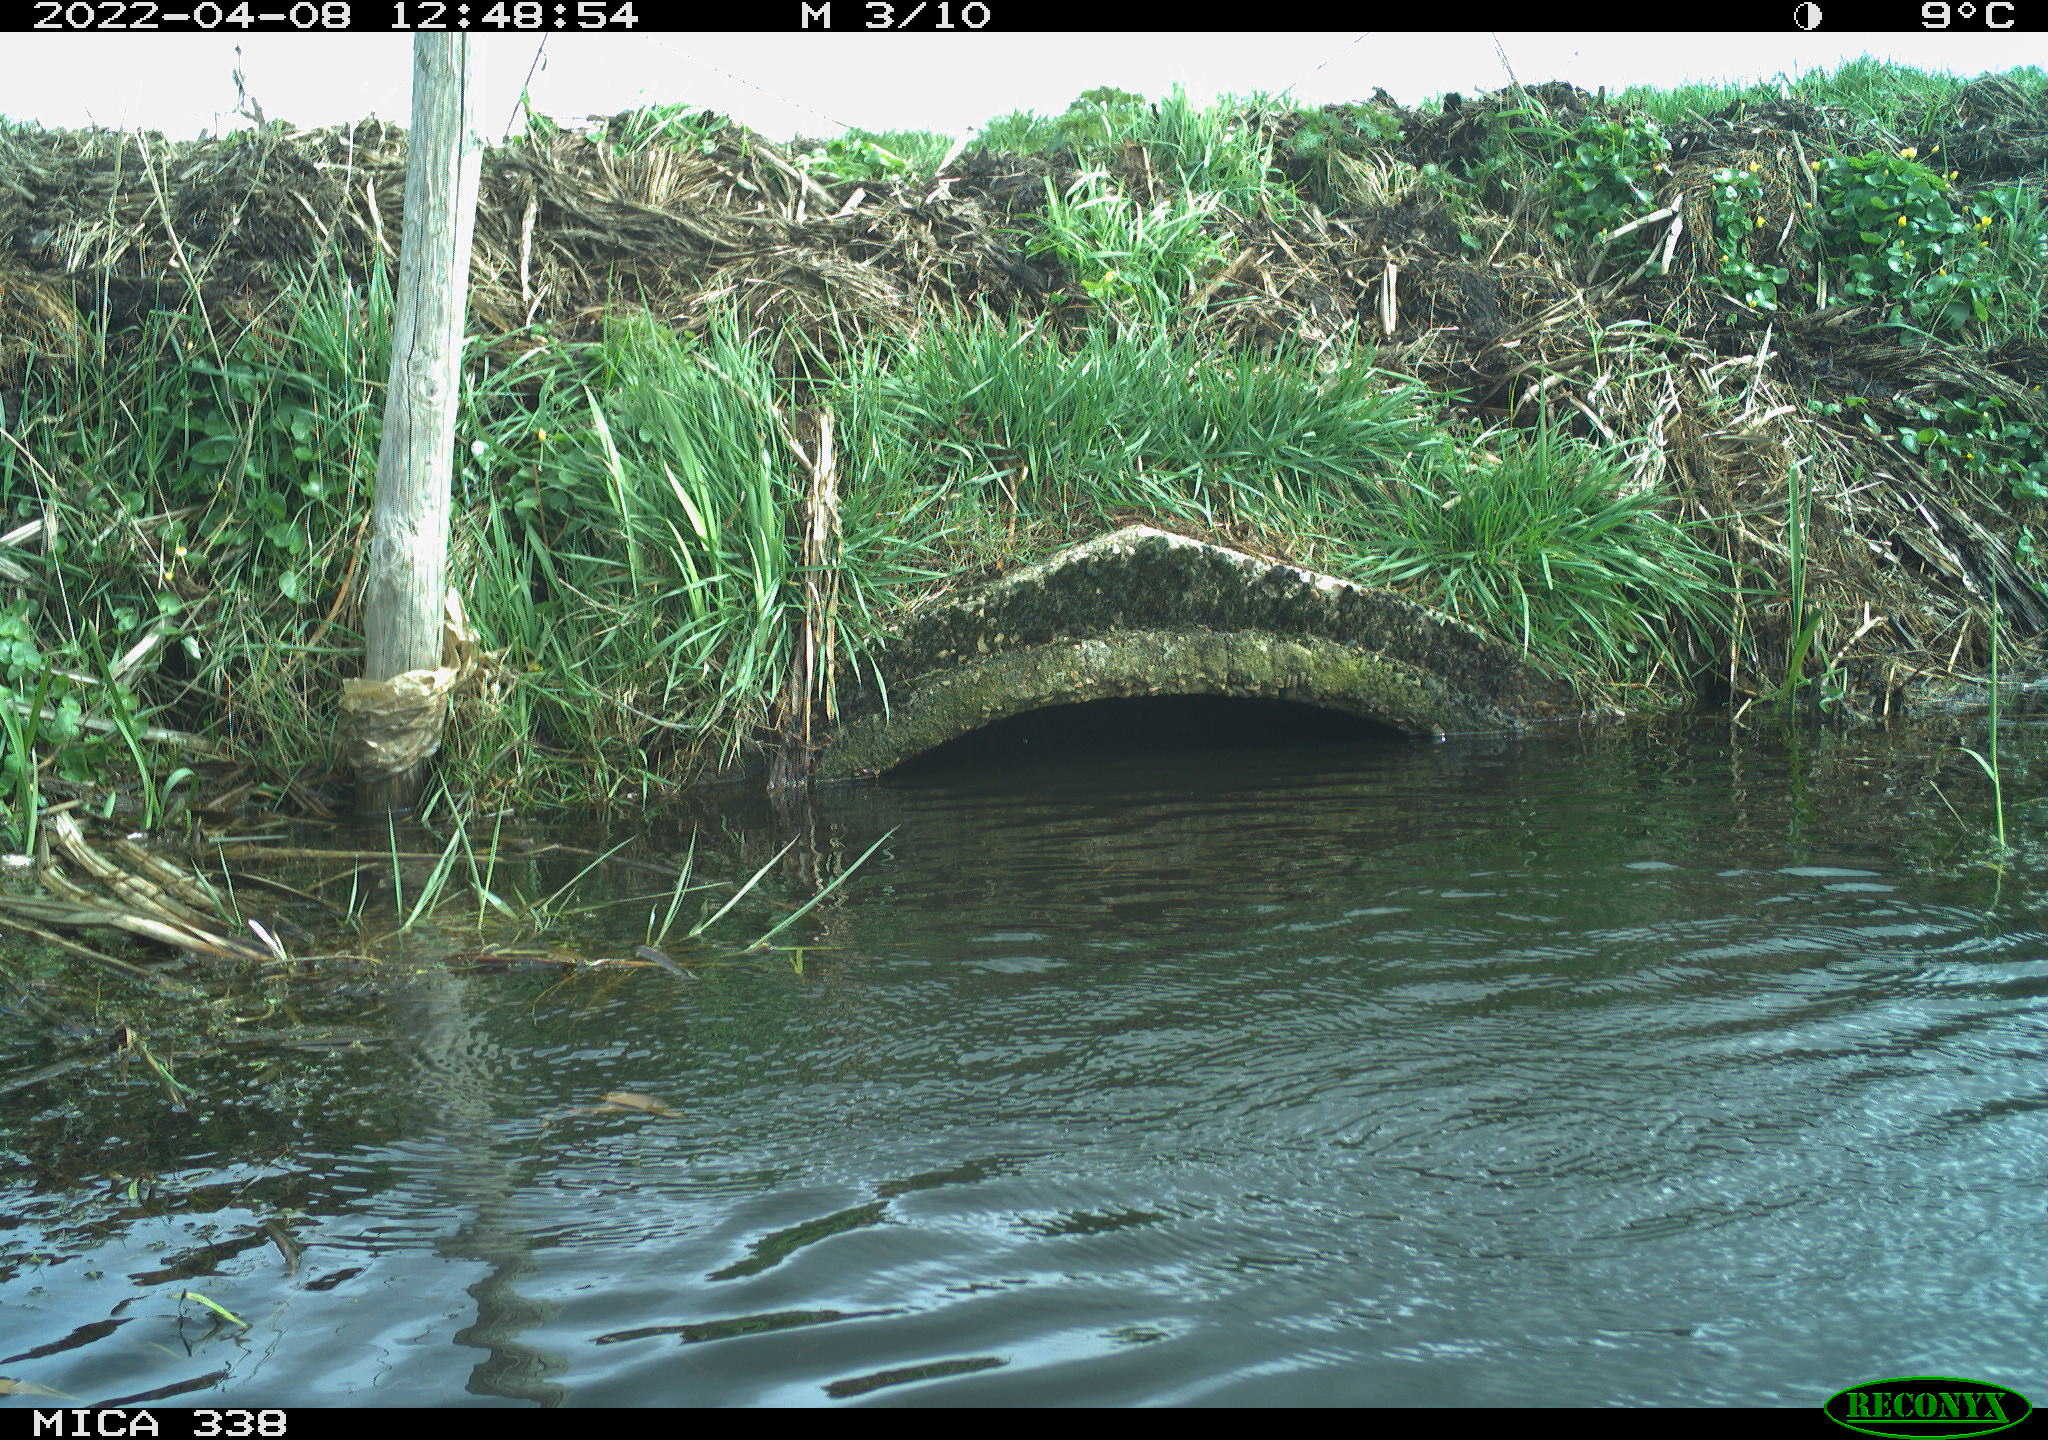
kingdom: Animalia
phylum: Chordata
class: Aves
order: Pelecaniformes
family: Ardeidae
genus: Ardea
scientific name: Ardea cinerea
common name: Grey heron
